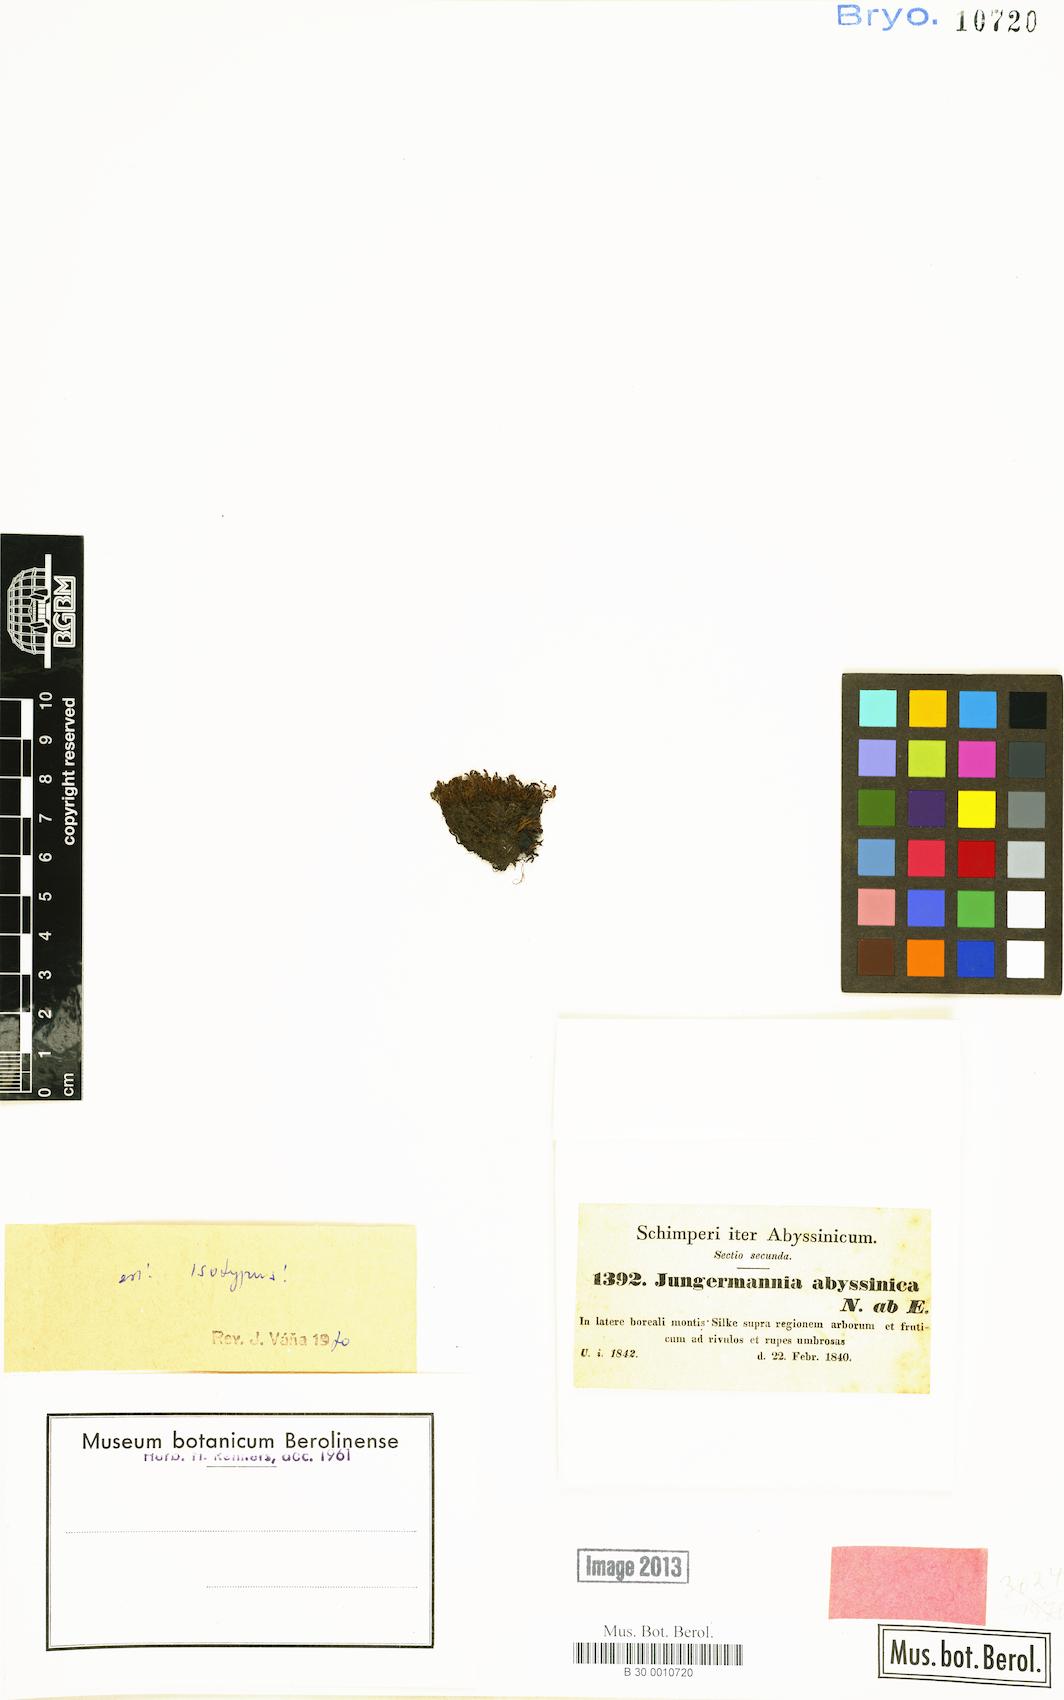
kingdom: Plantae
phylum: Marchantiophyta
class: Jungermanniopsida
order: Jungermanniales
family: Solenostomataceae
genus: Solenostoma
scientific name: Solenostoma confertissimum
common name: Kidney flapwort
